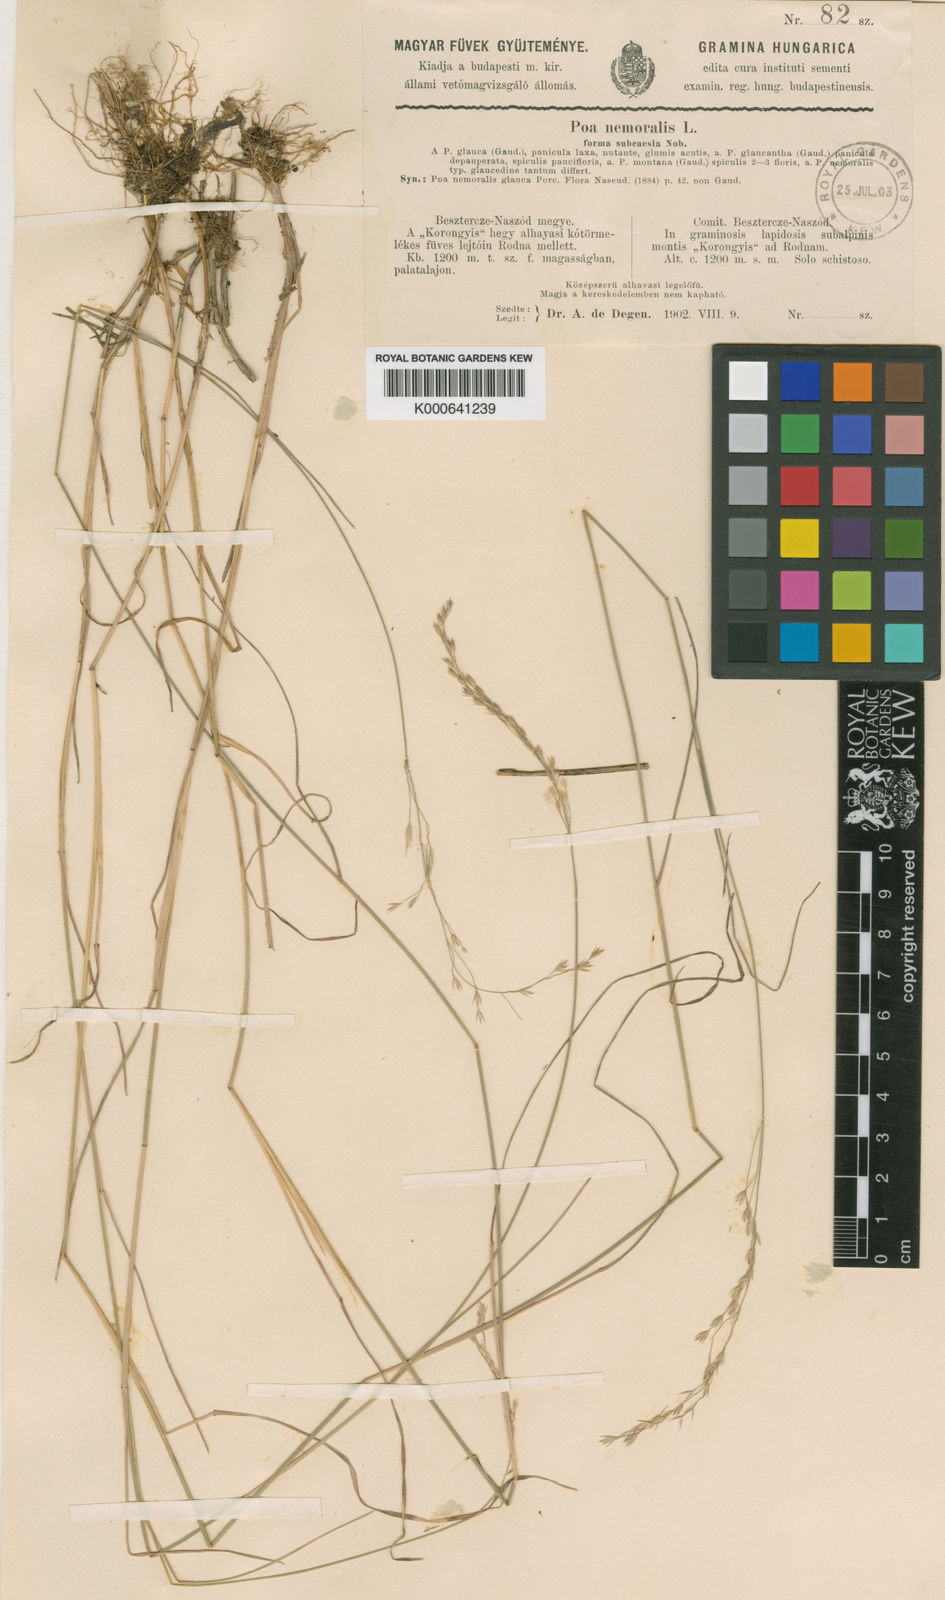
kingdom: Plantae
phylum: Tracheophyta
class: Liliopsida
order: Poales
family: Poaceae
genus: Poa
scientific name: Poa nemoralis
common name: Wood bluegrass
